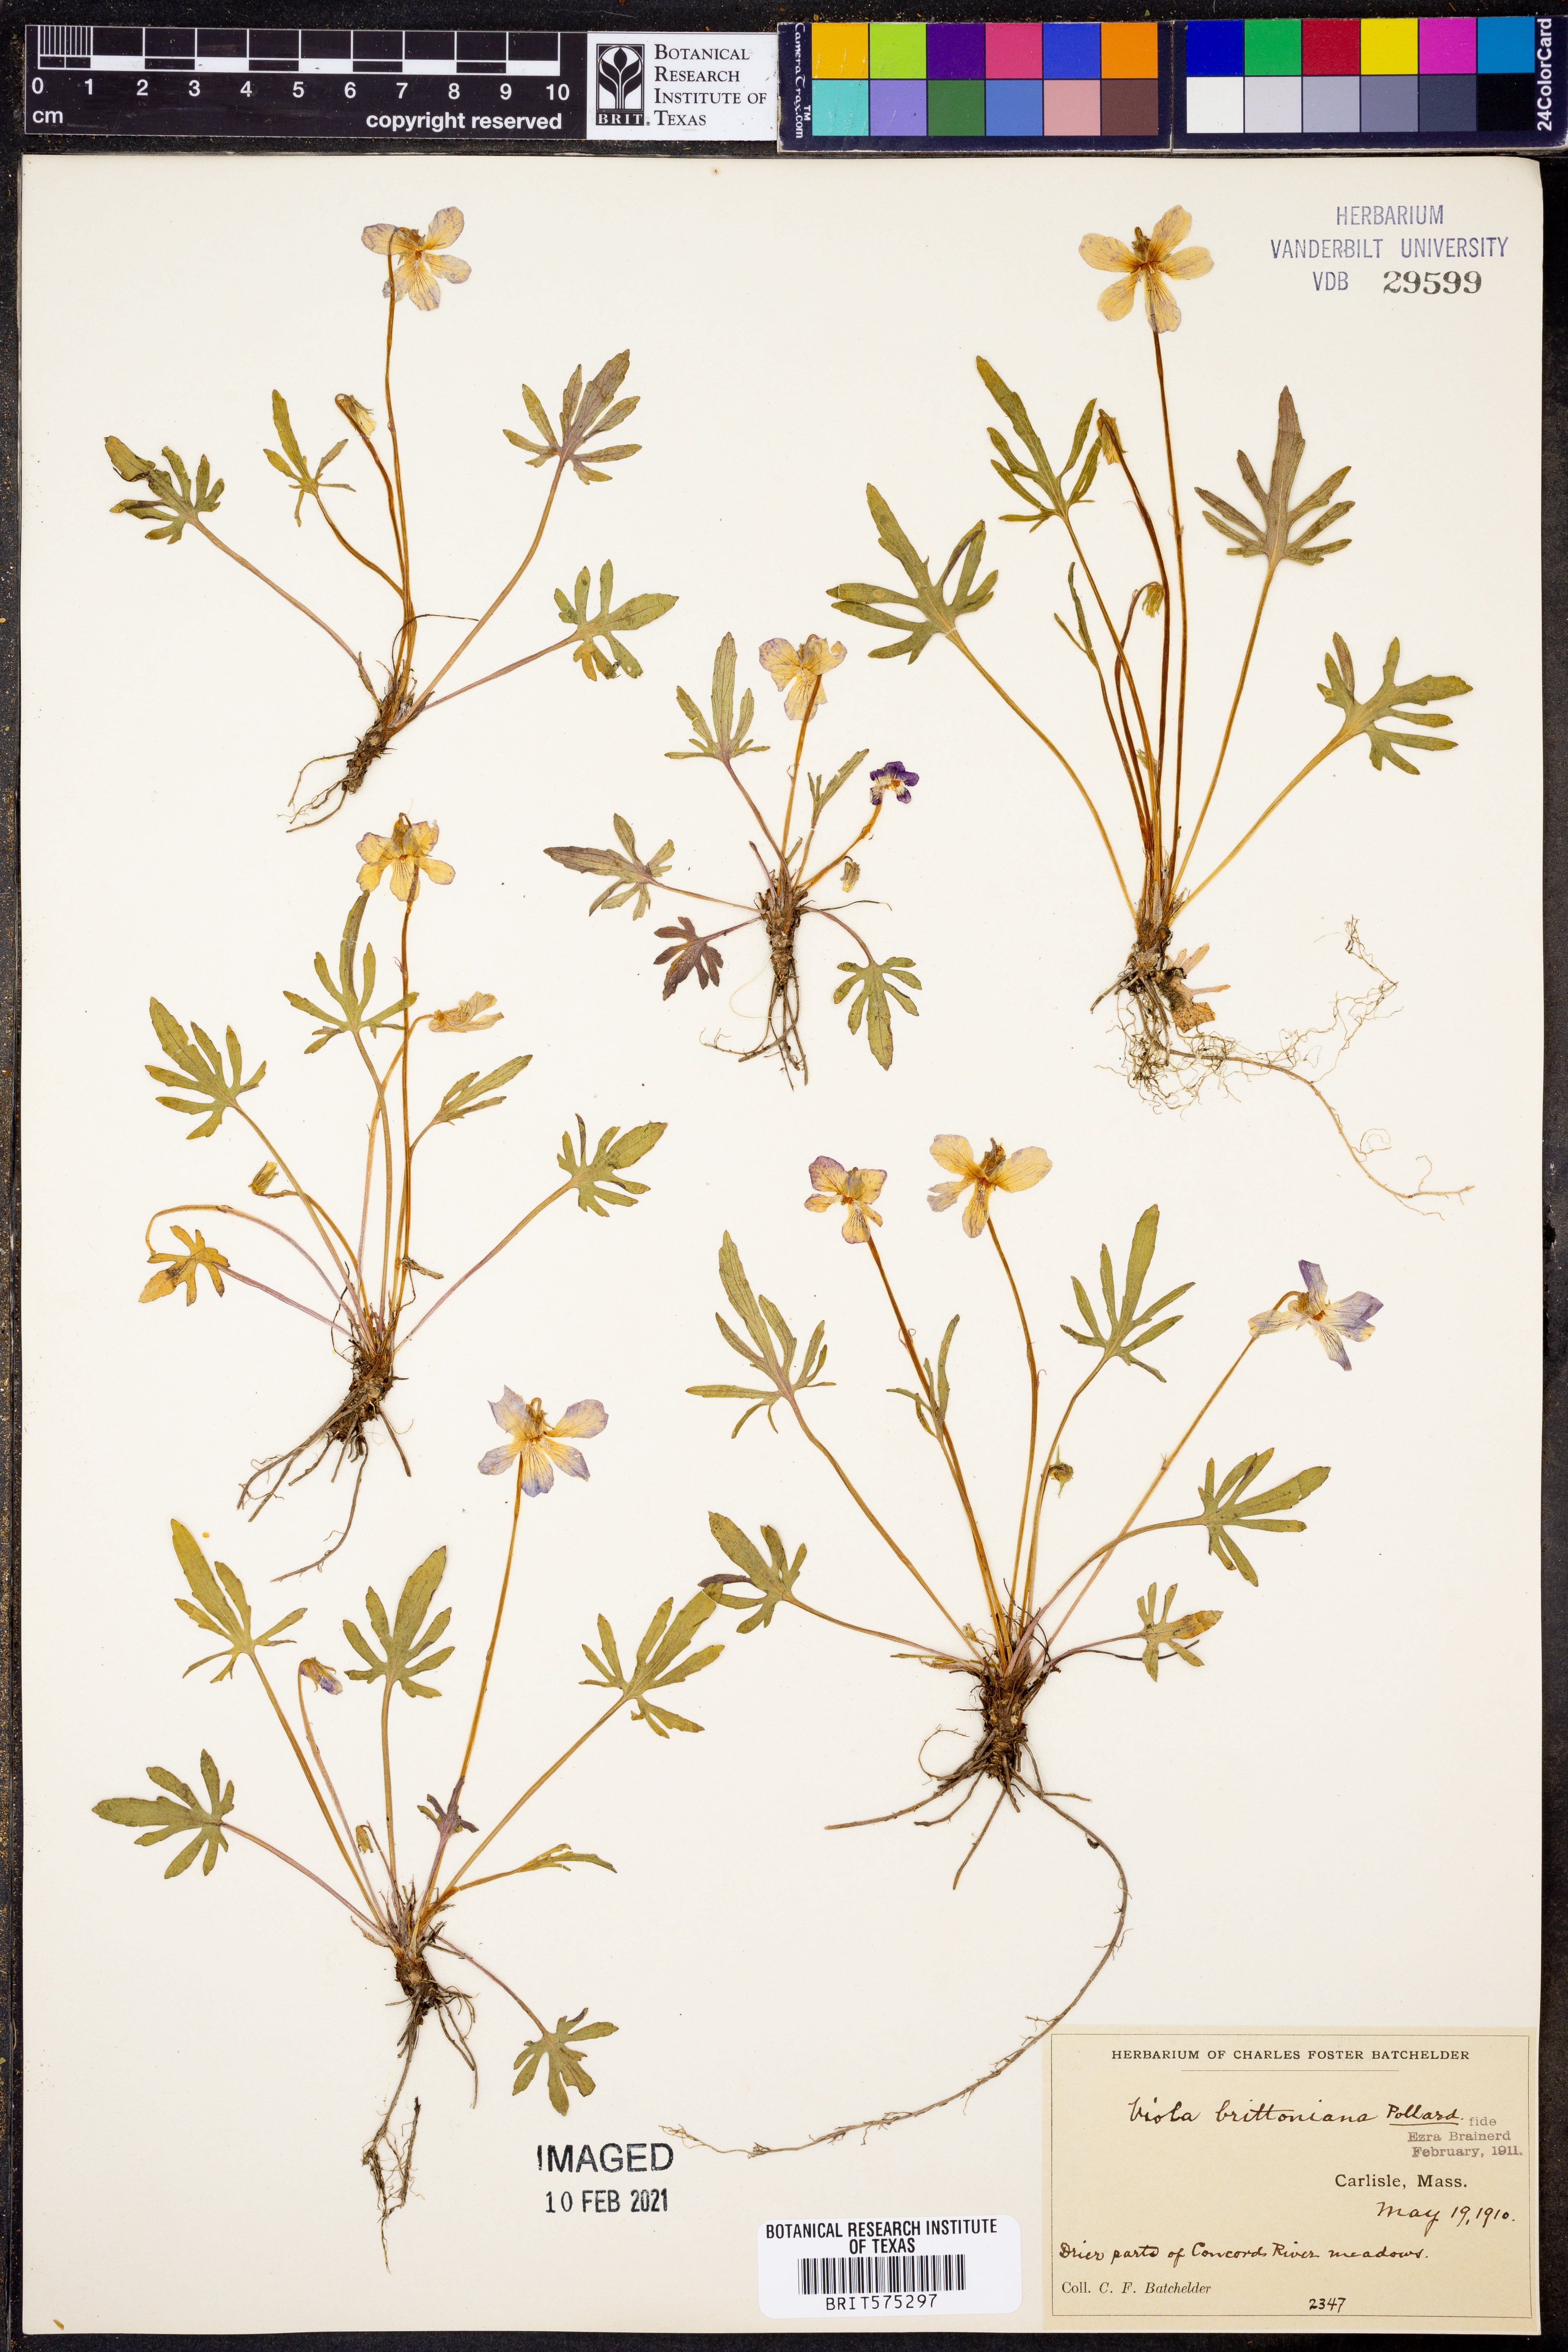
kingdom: Plantae
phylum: Tracheophyta
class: Magnoliopsida
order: Malpighiales
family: Violaceae
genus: Viola
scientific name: Viola brittoniana
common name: Northern coastal violet
